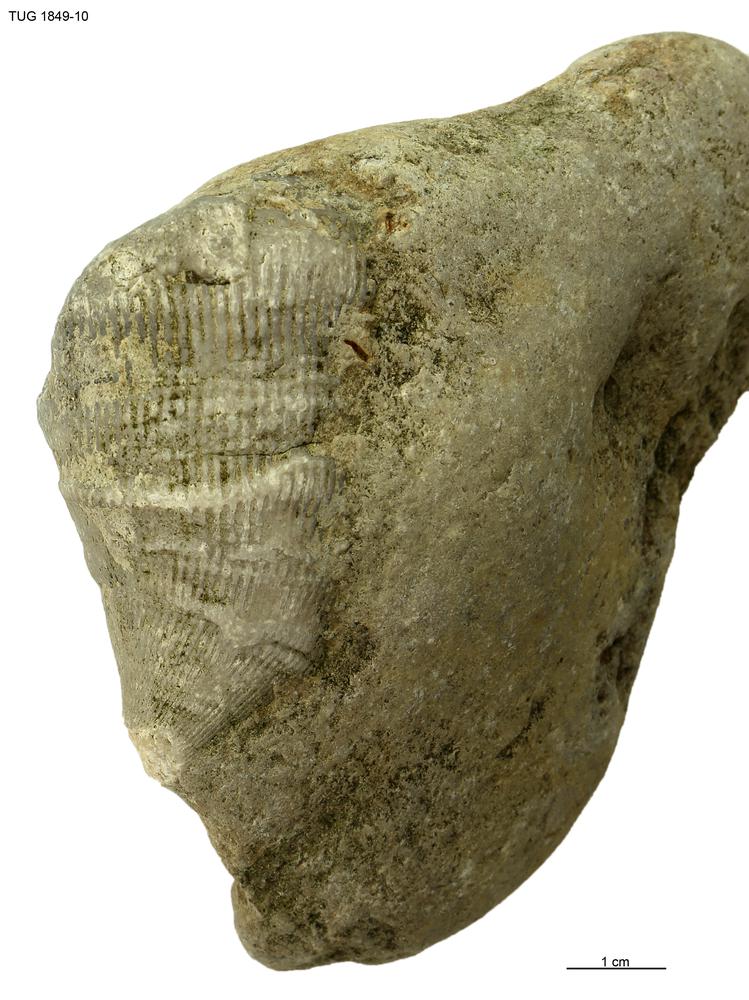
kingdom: Animalia
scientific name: Animalia
